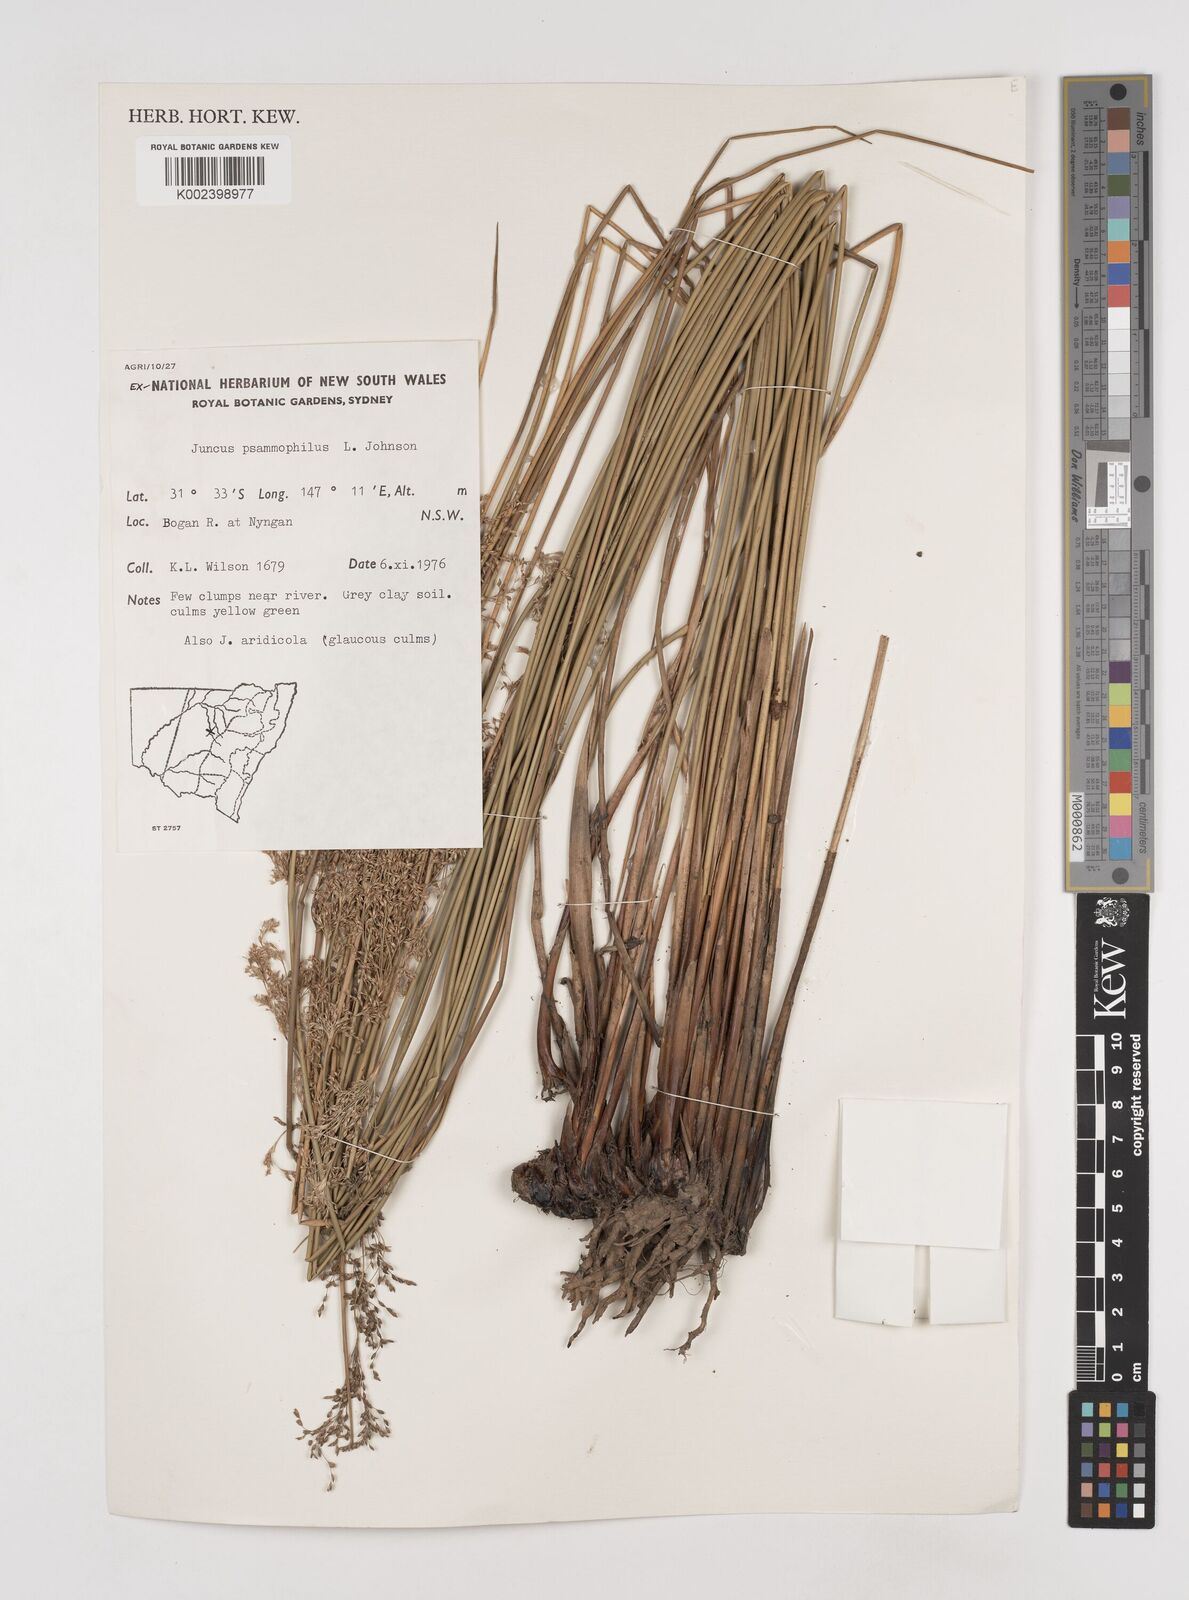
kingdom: Plantae
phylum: Tracheophyta
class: Liliopsida
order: Poales
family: Juncaceae
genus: Juncus
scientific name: Juncus psammophilus
